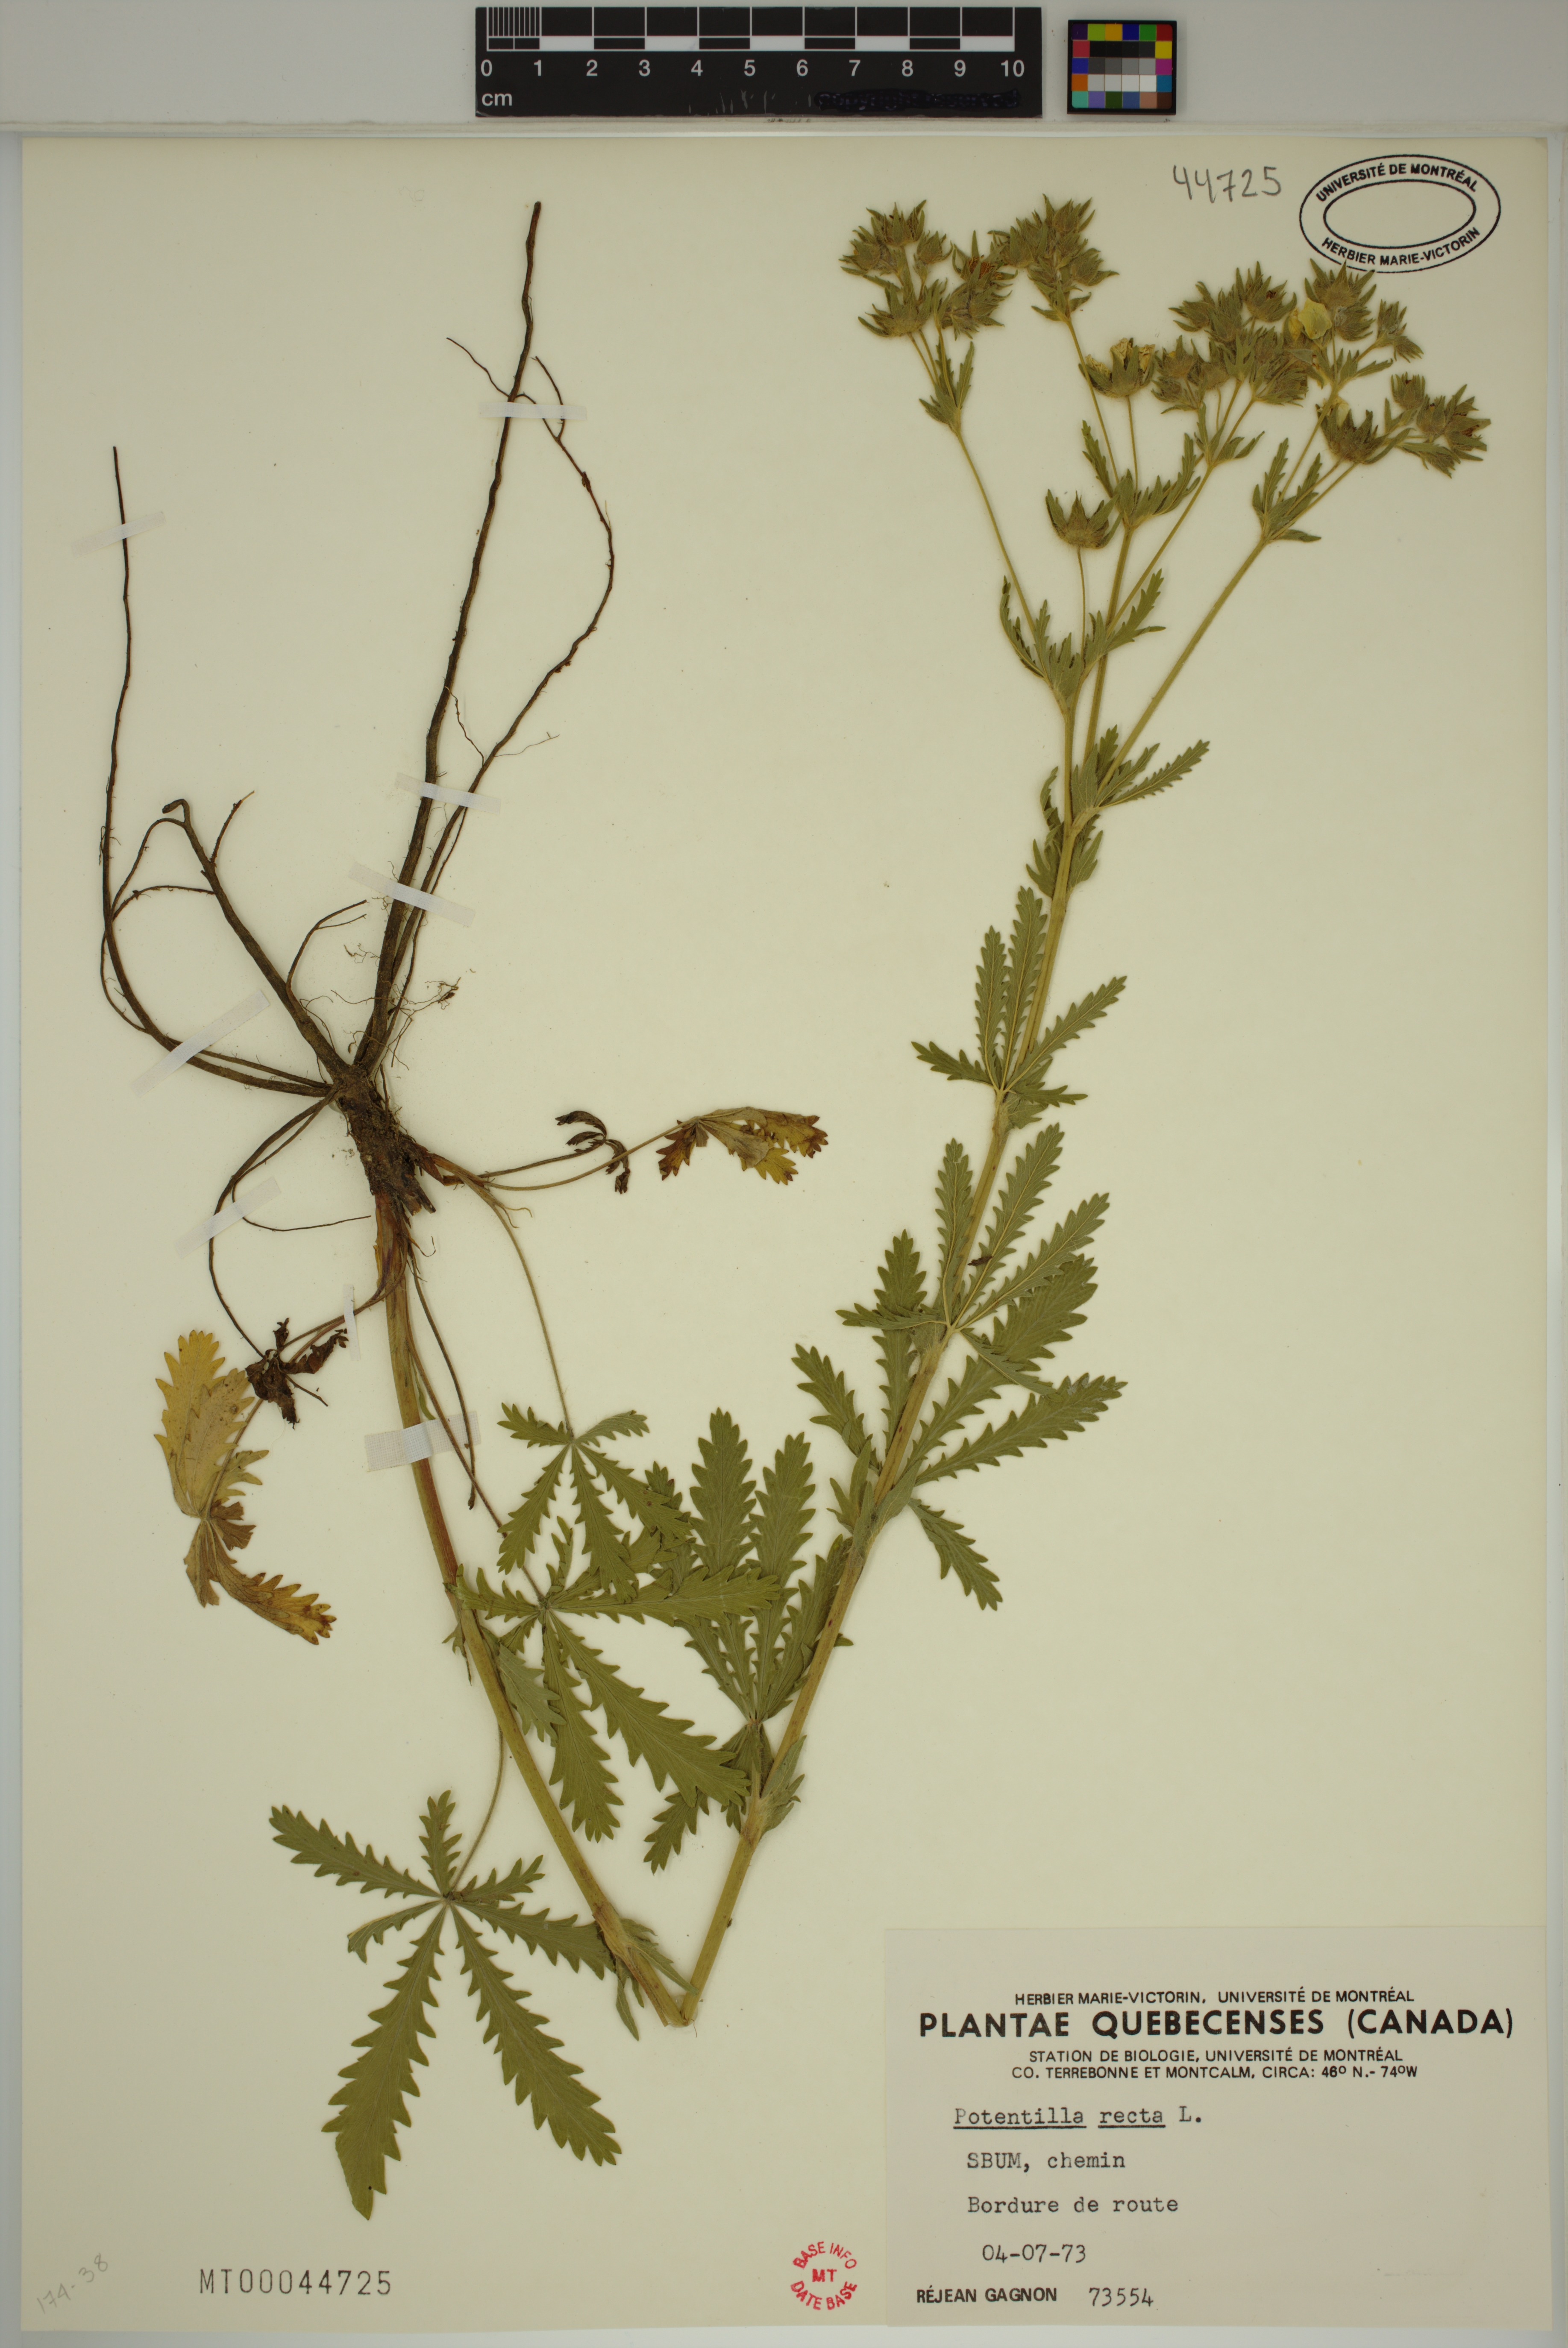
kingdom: Plantae
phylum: Tracheophyta
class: Magnoliopsida
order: Rosales
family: Rosaceae
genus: Potentilla
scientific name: Potentilla recta
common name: Sulphur cinquefoil
